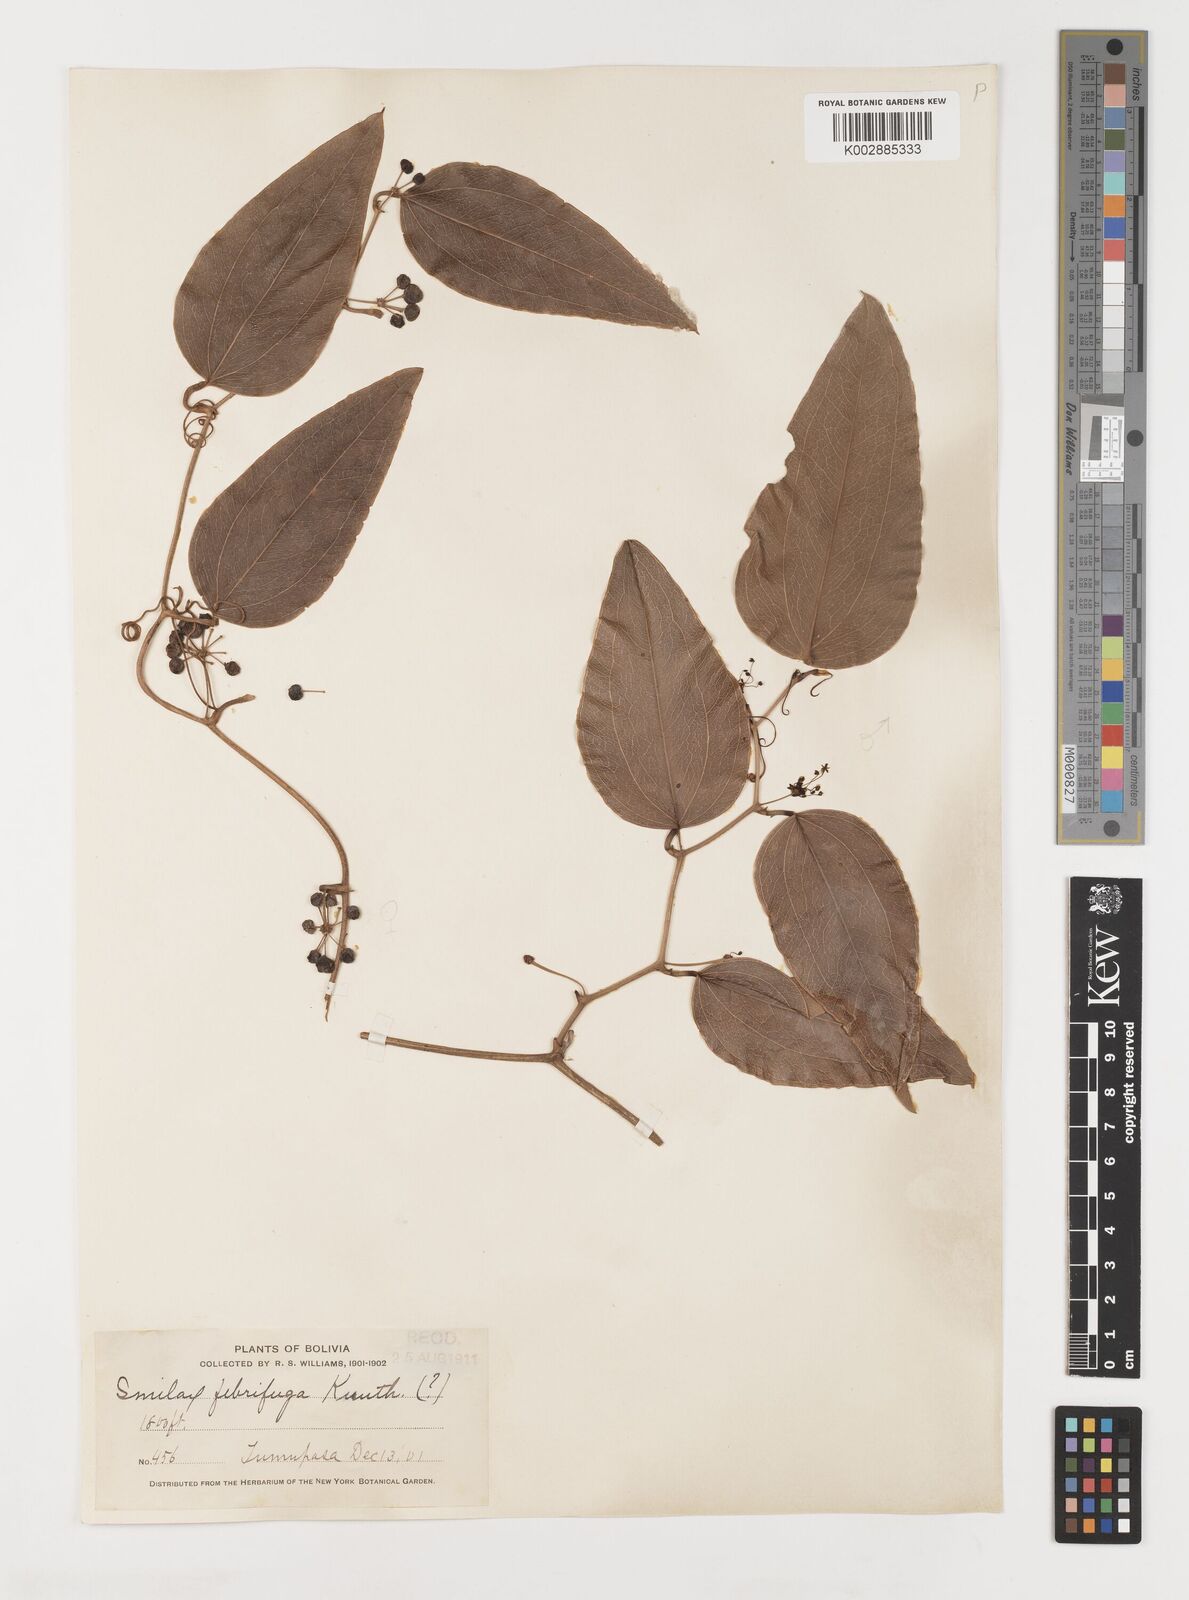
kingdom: Plantae
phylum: Tracheophyta
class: Liliopsida
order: Liliales
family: Smilacaceae
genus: Smilax
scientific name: Smilax purhampuy
